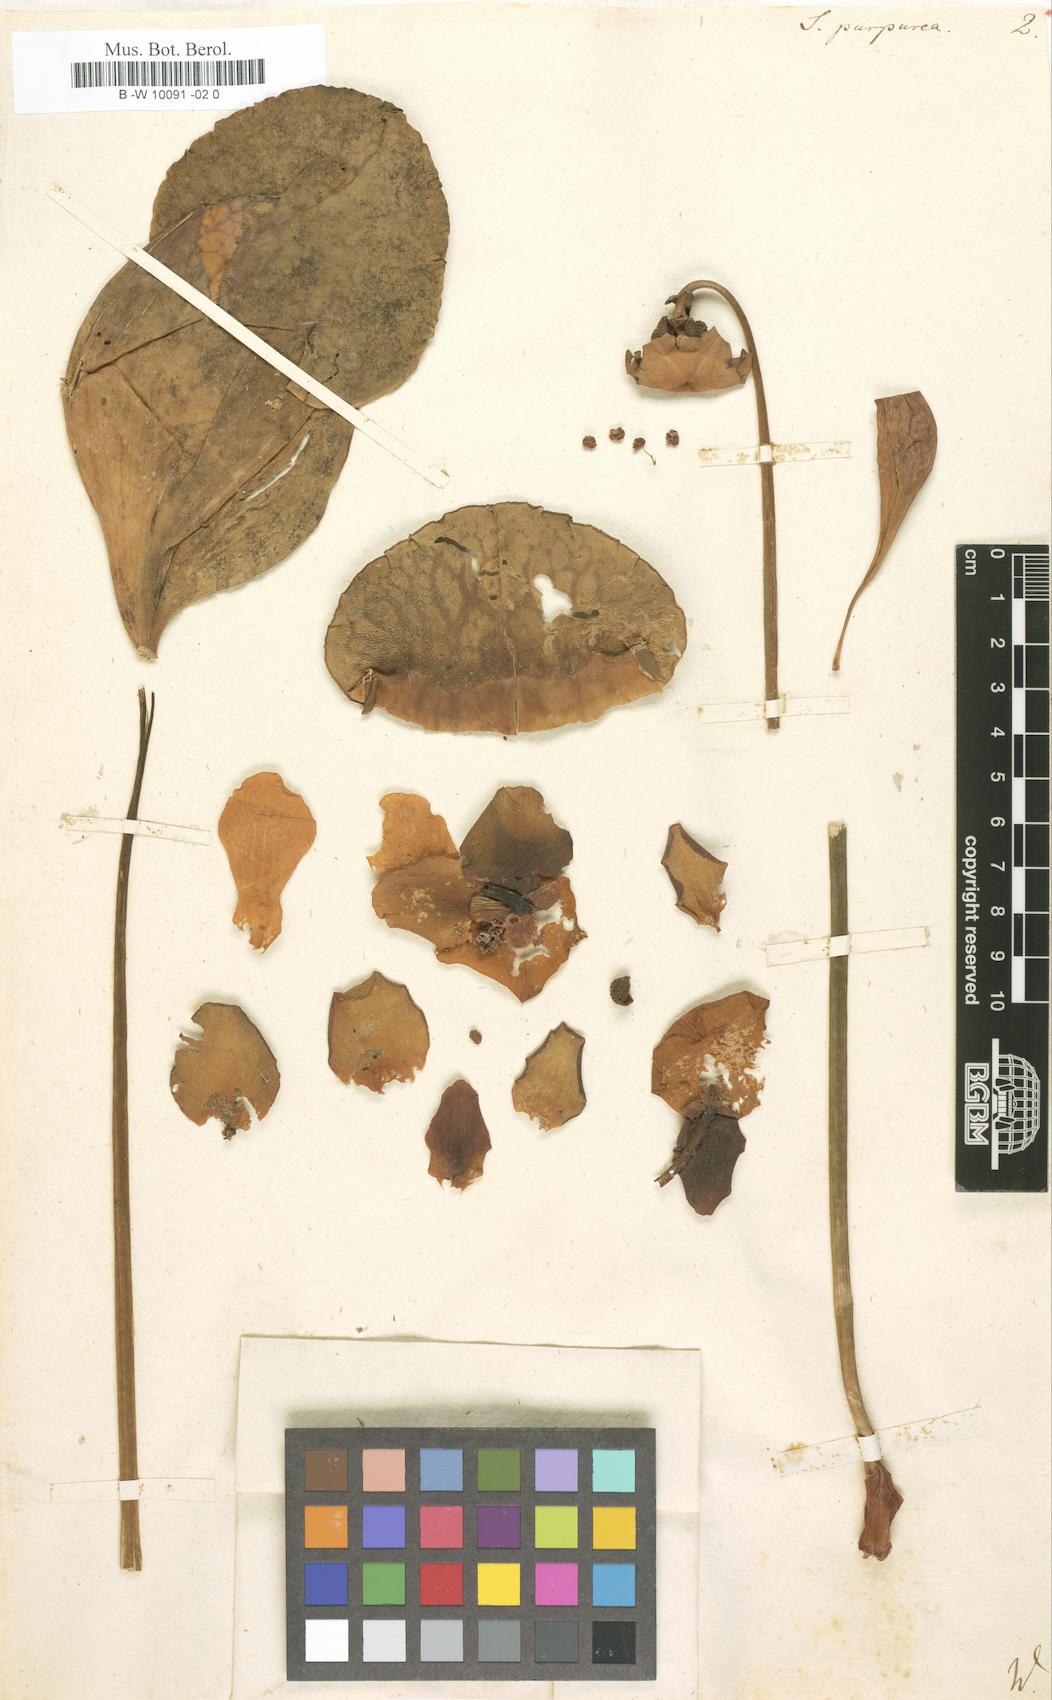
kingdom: Plantae
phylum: Tracheophyta
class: Magnoliopsida
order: Ericales
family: Sarraceniaceae
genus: Sarracenia
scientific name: Sarracenia purpurea
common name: Pitcherplant
